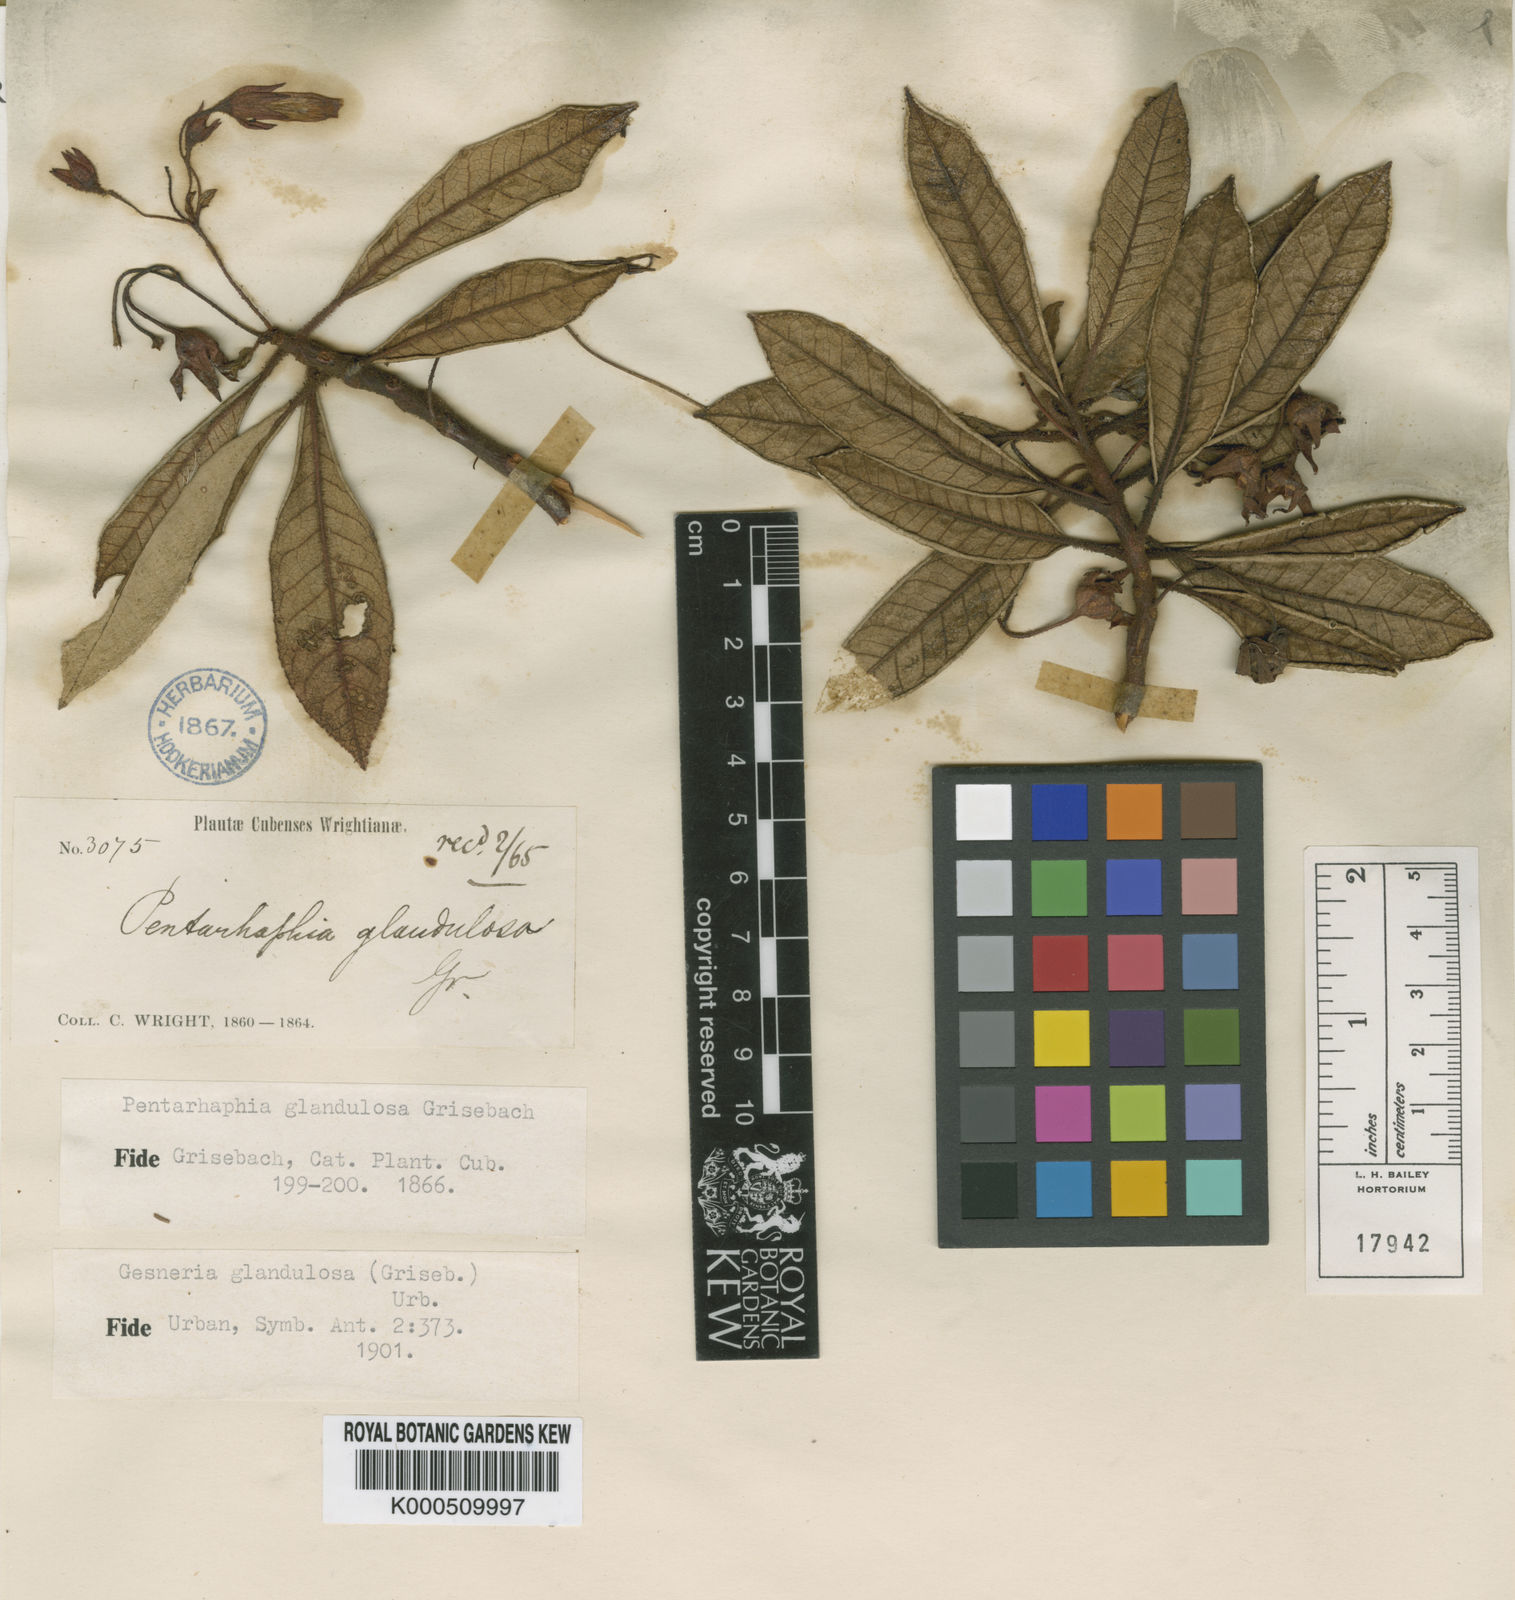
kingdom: Plantae
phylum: Tracheophyta
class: Magnoliopsida
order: Lamiales
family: Gesneriaceae
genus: Gesneria
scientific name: Gesneria glandulosa
